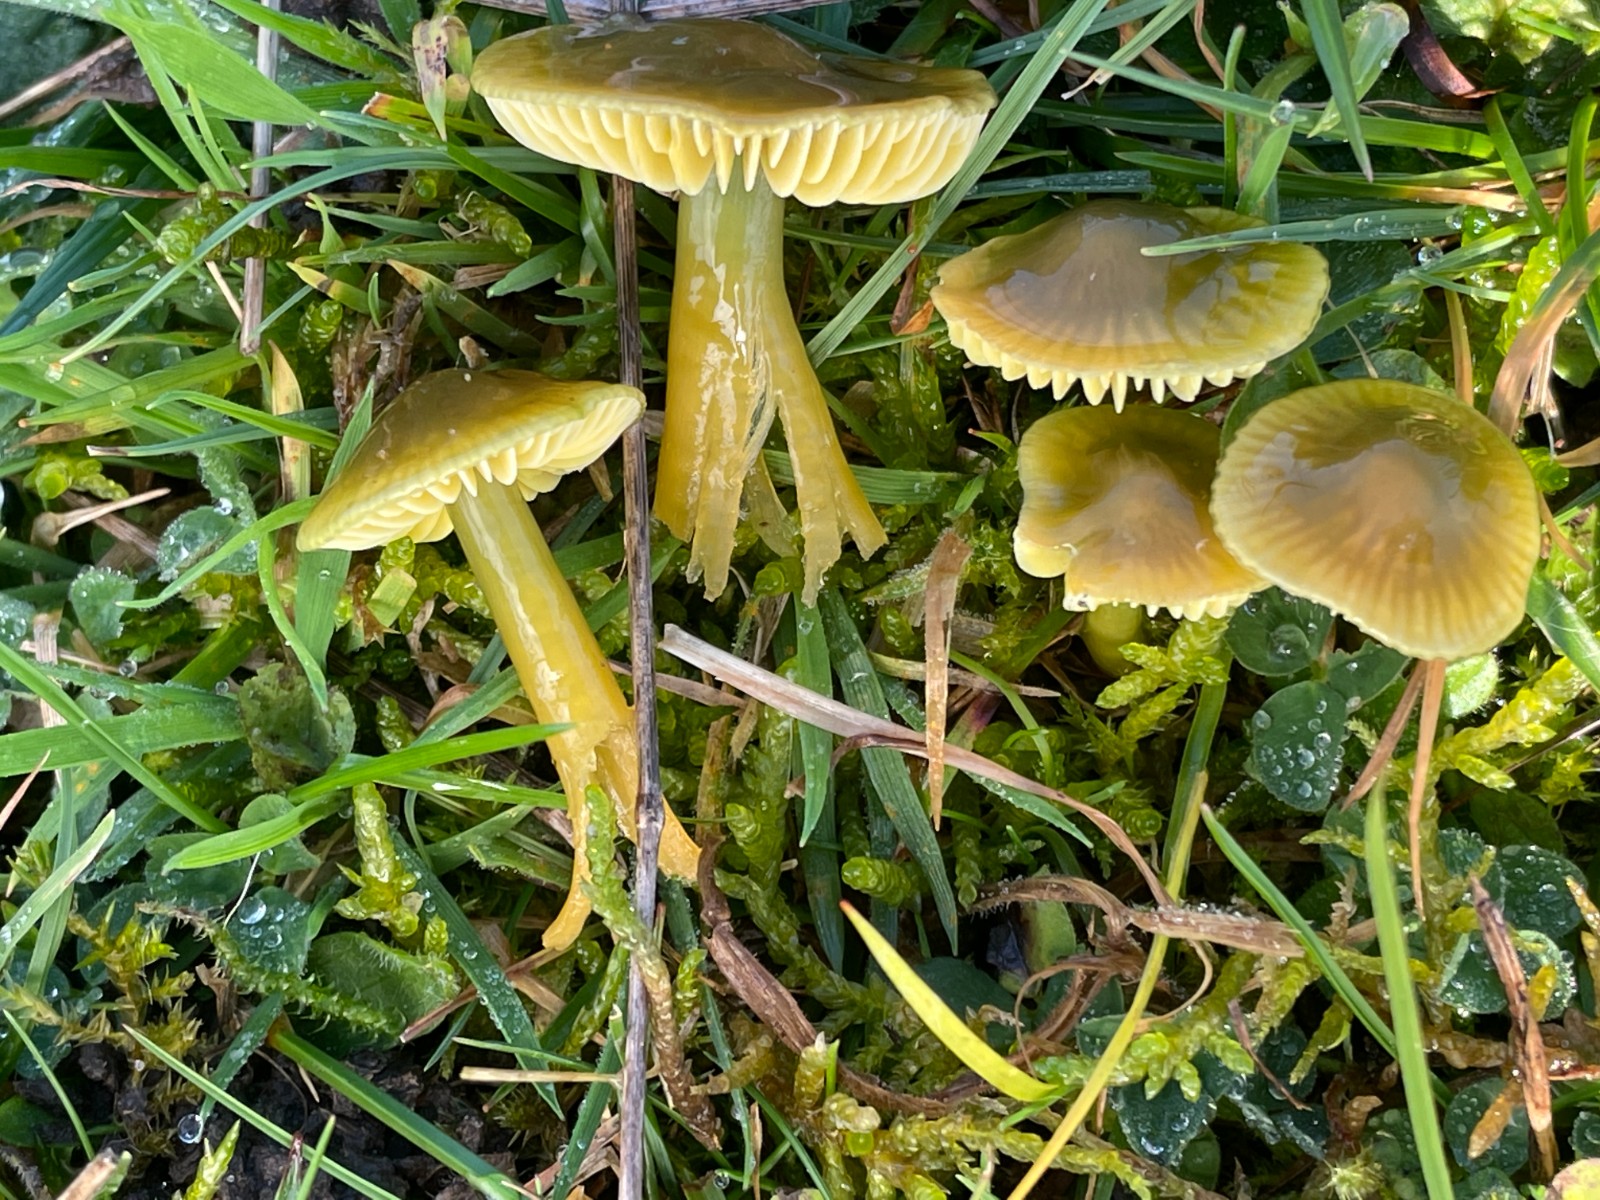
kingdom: Fungi
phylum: Basidiomycota
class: Agaricomycetes
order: Agaricales
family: Hygrophoraceae
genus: Gliophorus
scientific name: Gliophorus psittacinus
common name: papegøje-vokshat
